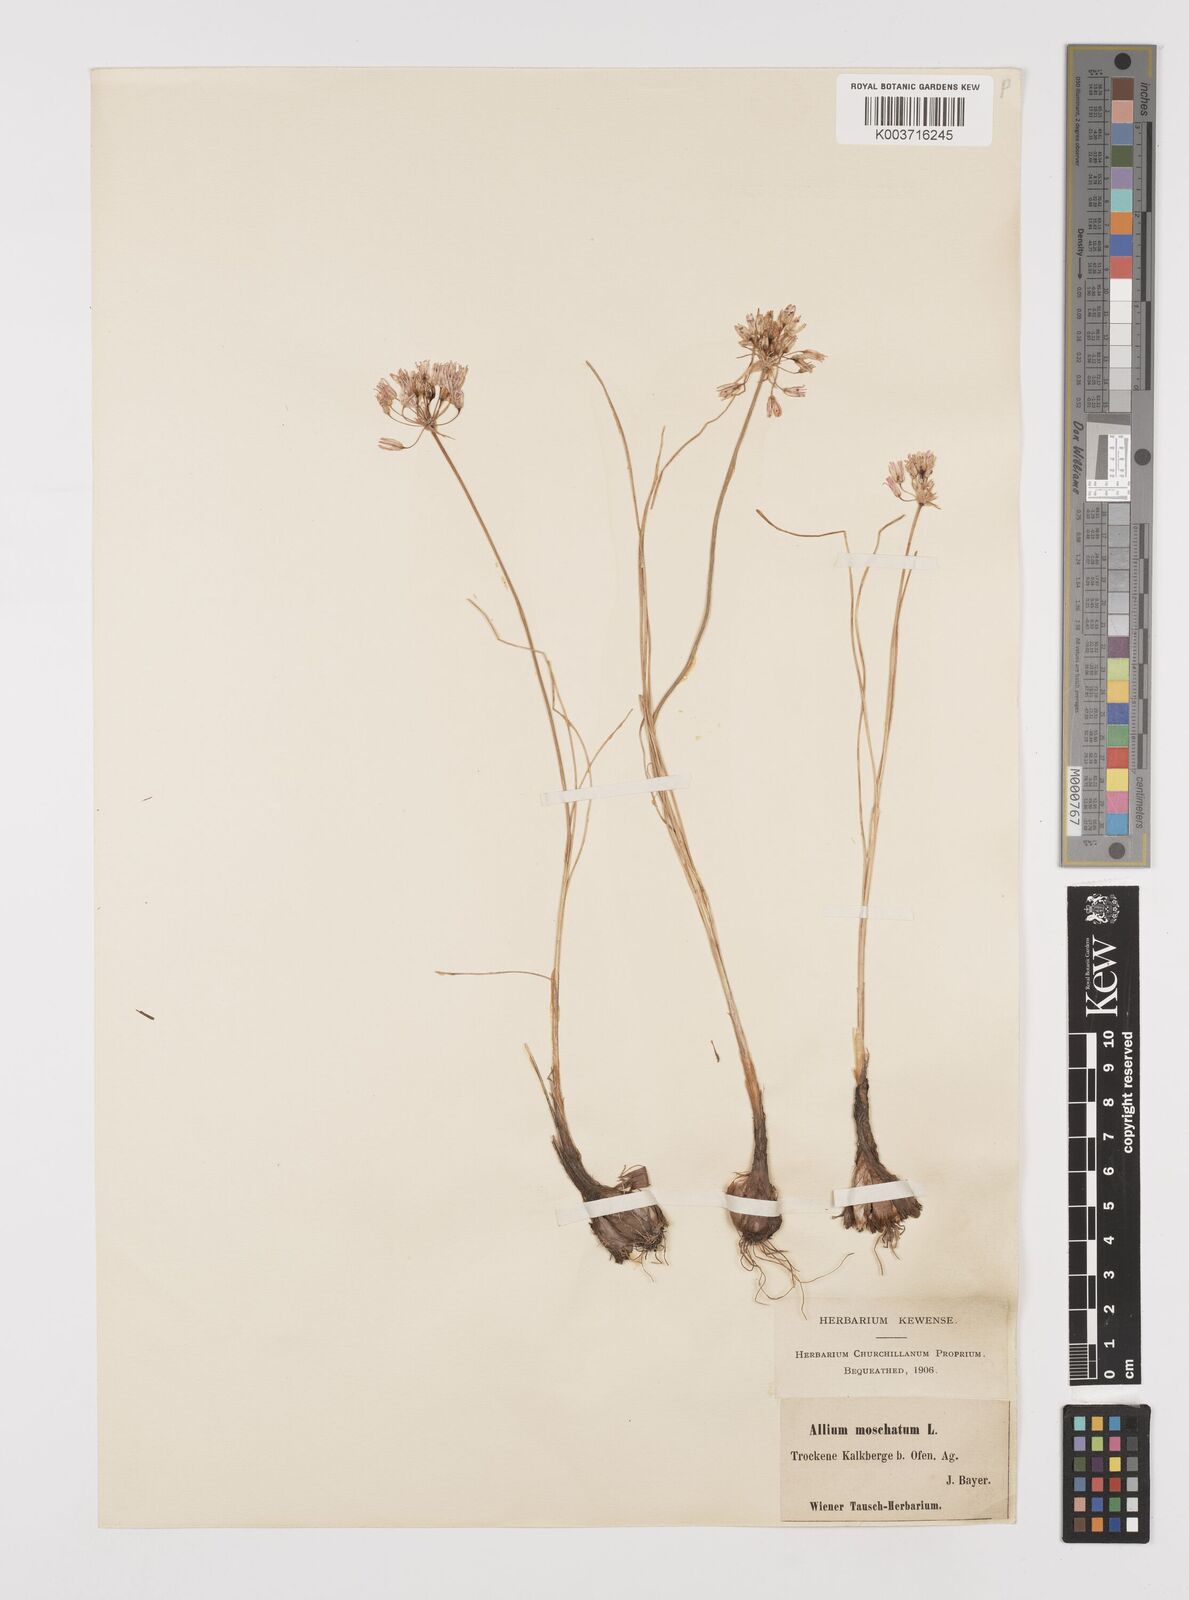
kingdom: Plantae
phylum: Tracheophyta
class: Liliopsida
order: Asparagales
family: Amaryllidaceae
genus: Allium
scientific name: Allium moschatum
